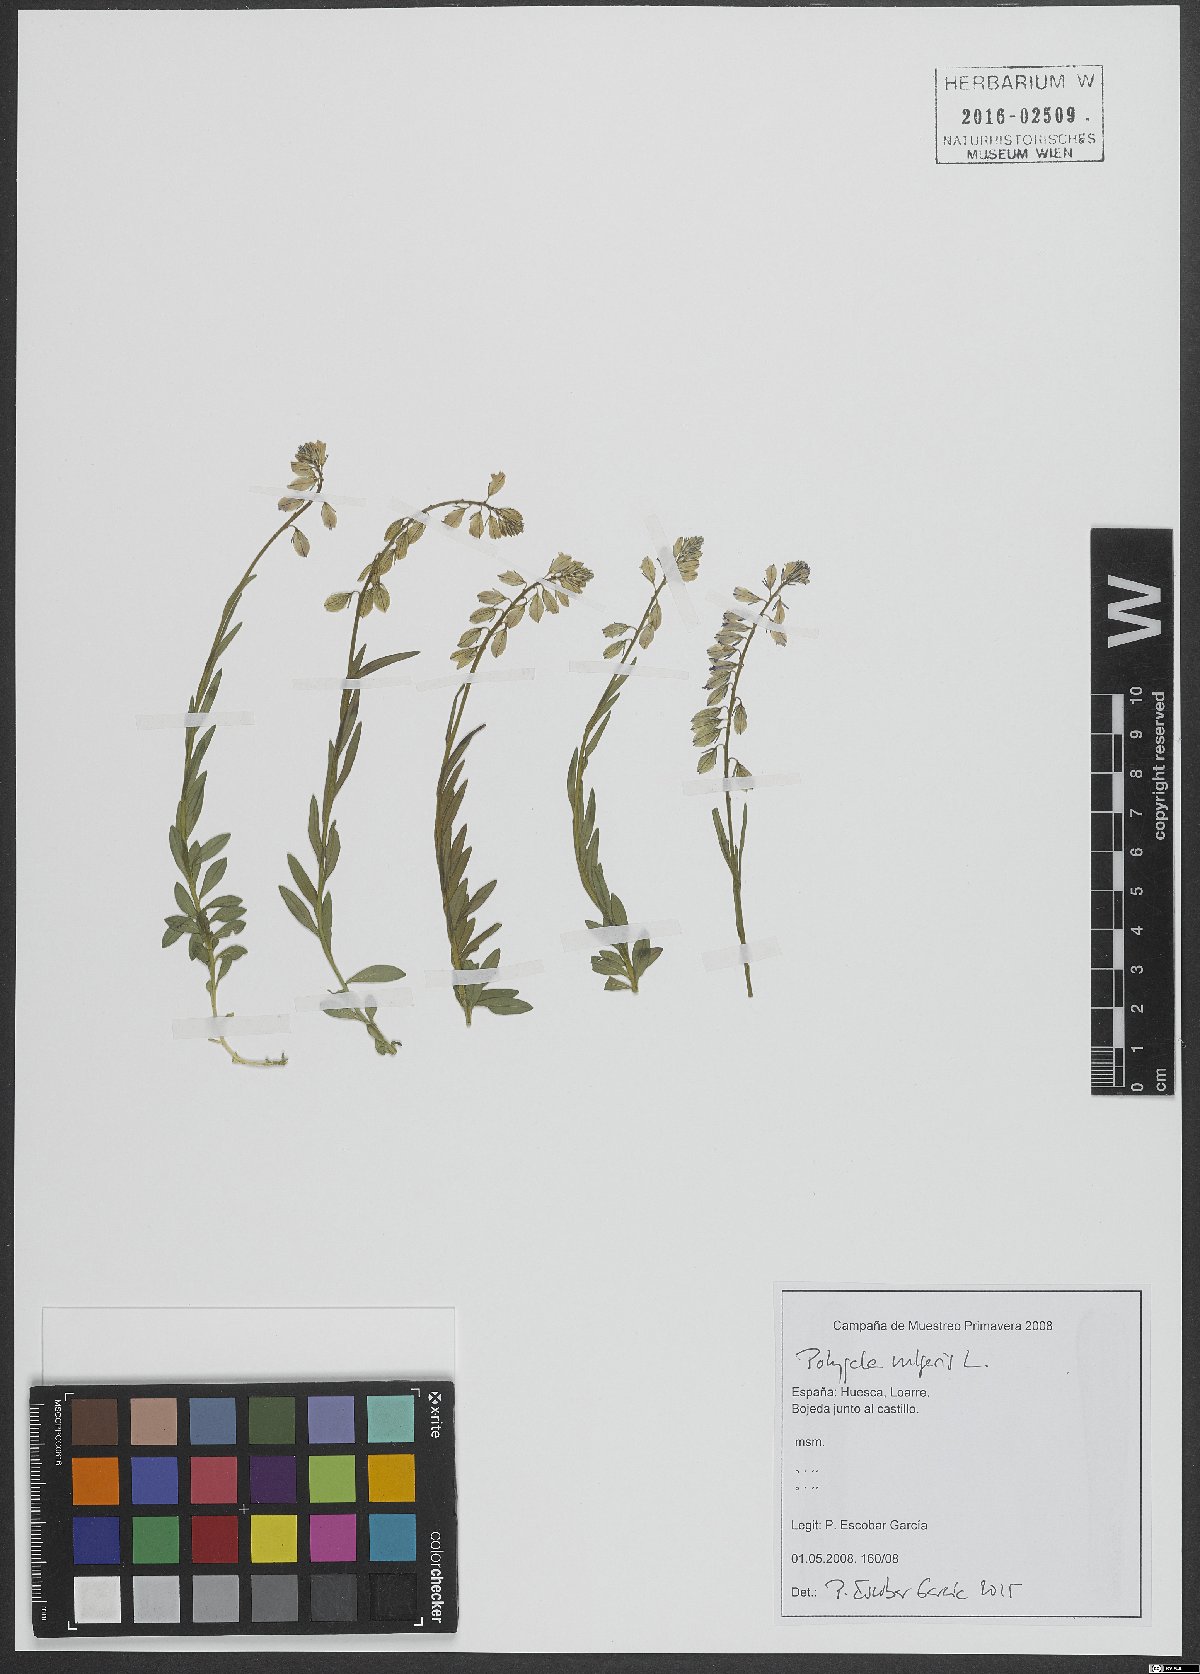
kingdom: Plantae
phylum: Tracheophyta
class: Magnoliopsida
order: Fabales
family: Polygalaceae
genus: Polygala
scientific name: Polygala vulgaris
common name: Common milkwort
